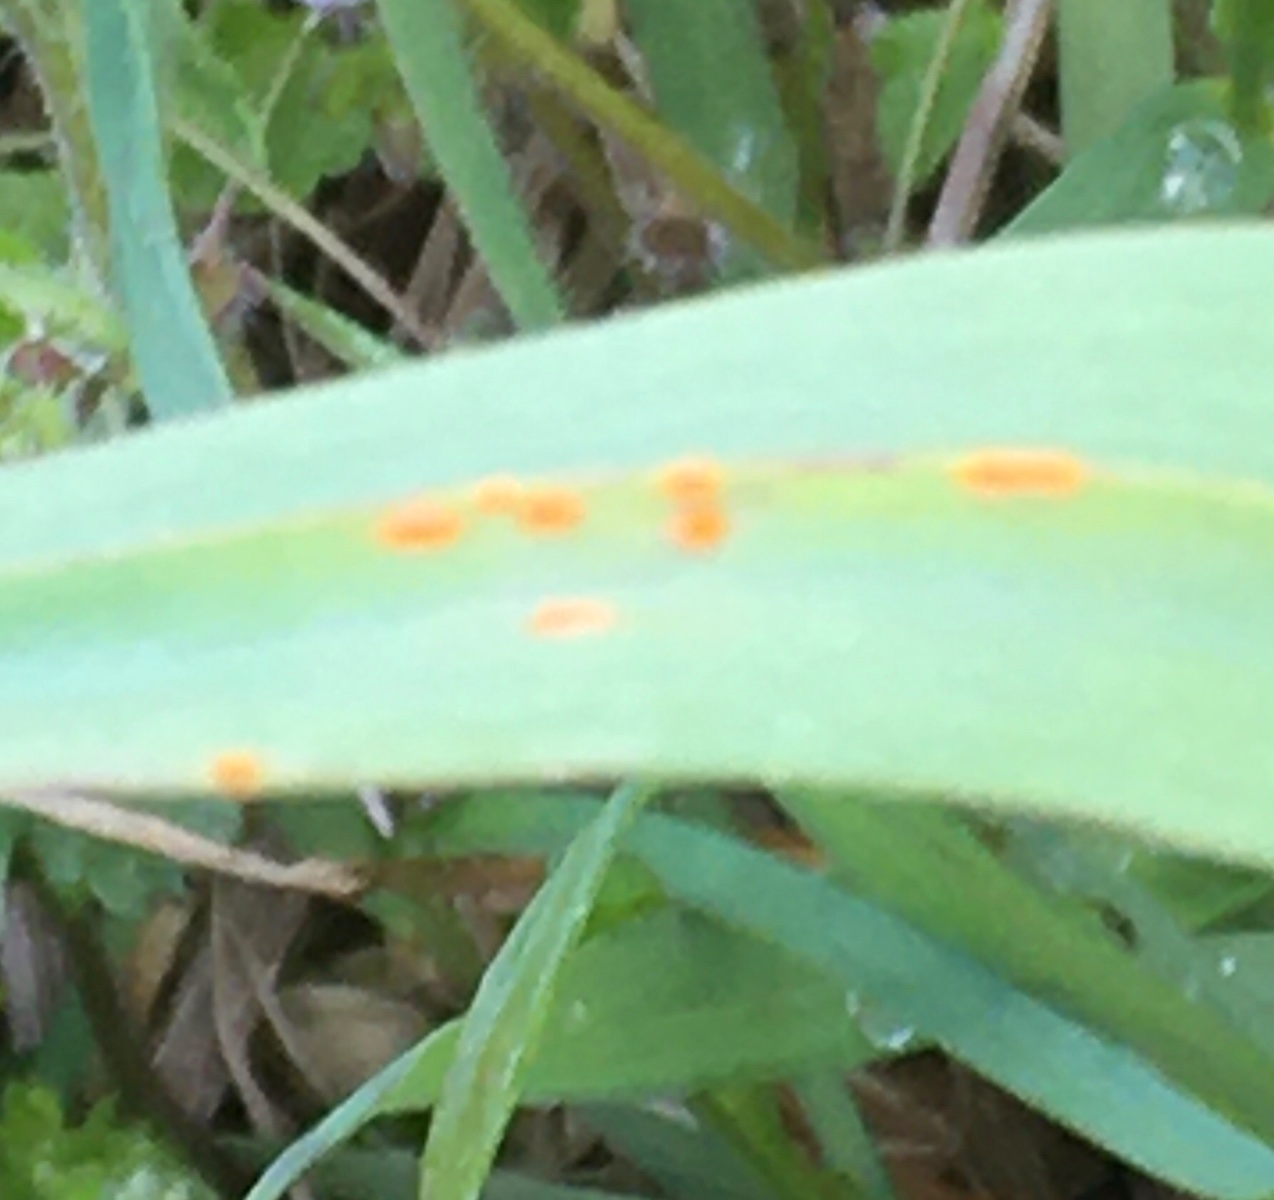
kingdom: Fungi
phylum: Basidiomycota
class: Pucciniomycetes
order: Pucciniales
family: Pucciniaceae
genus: Puccinia
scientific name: Puccinia porri
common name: Allium rust
